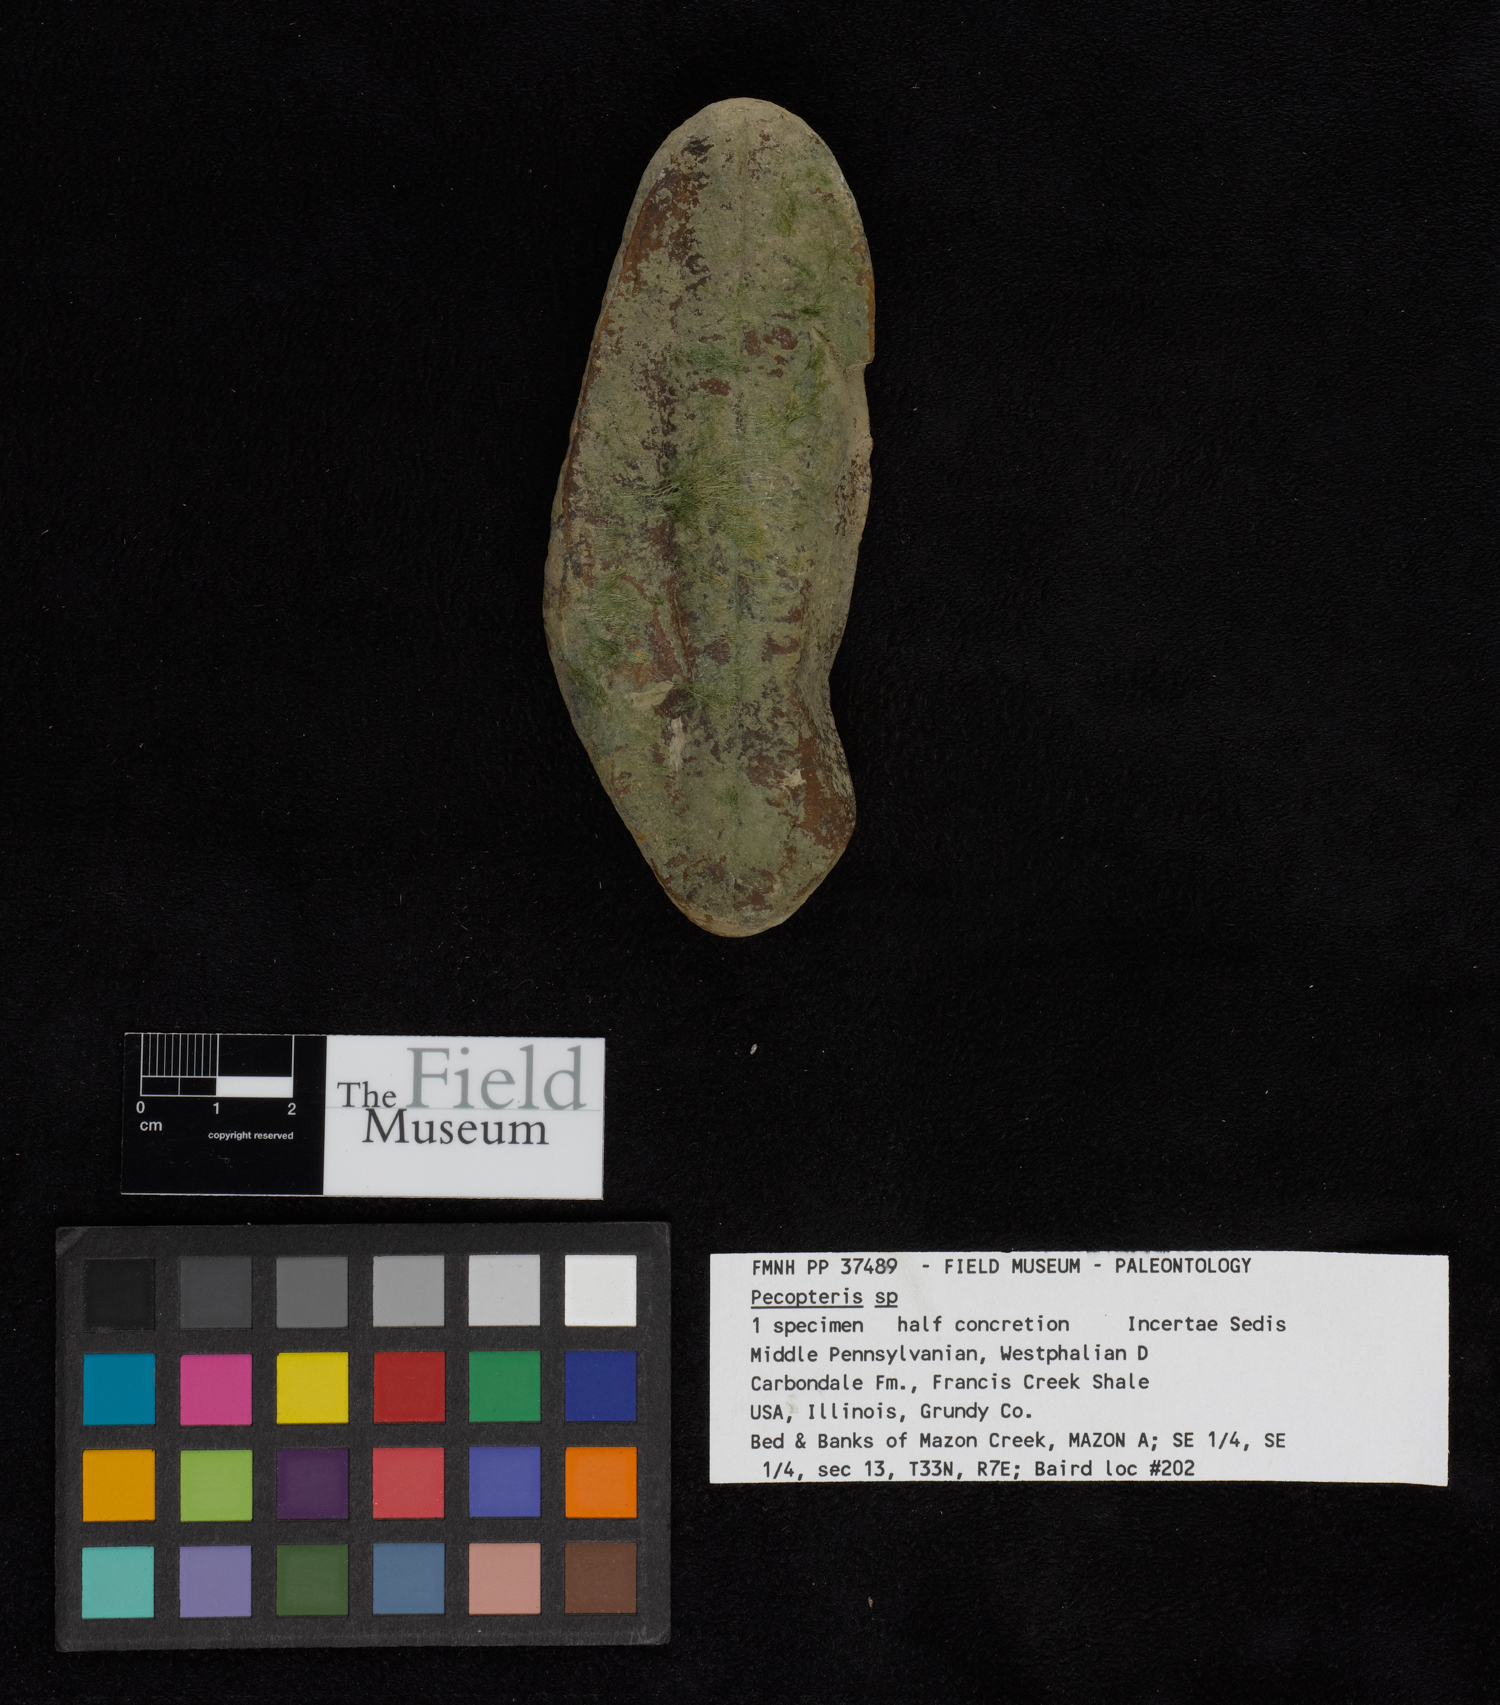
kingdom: Plantae
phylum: Tracheophyta
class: Polypodiopsida
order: Marattiales
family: Asterothecaceae
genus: Pecopteris
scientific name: Pecopteris
